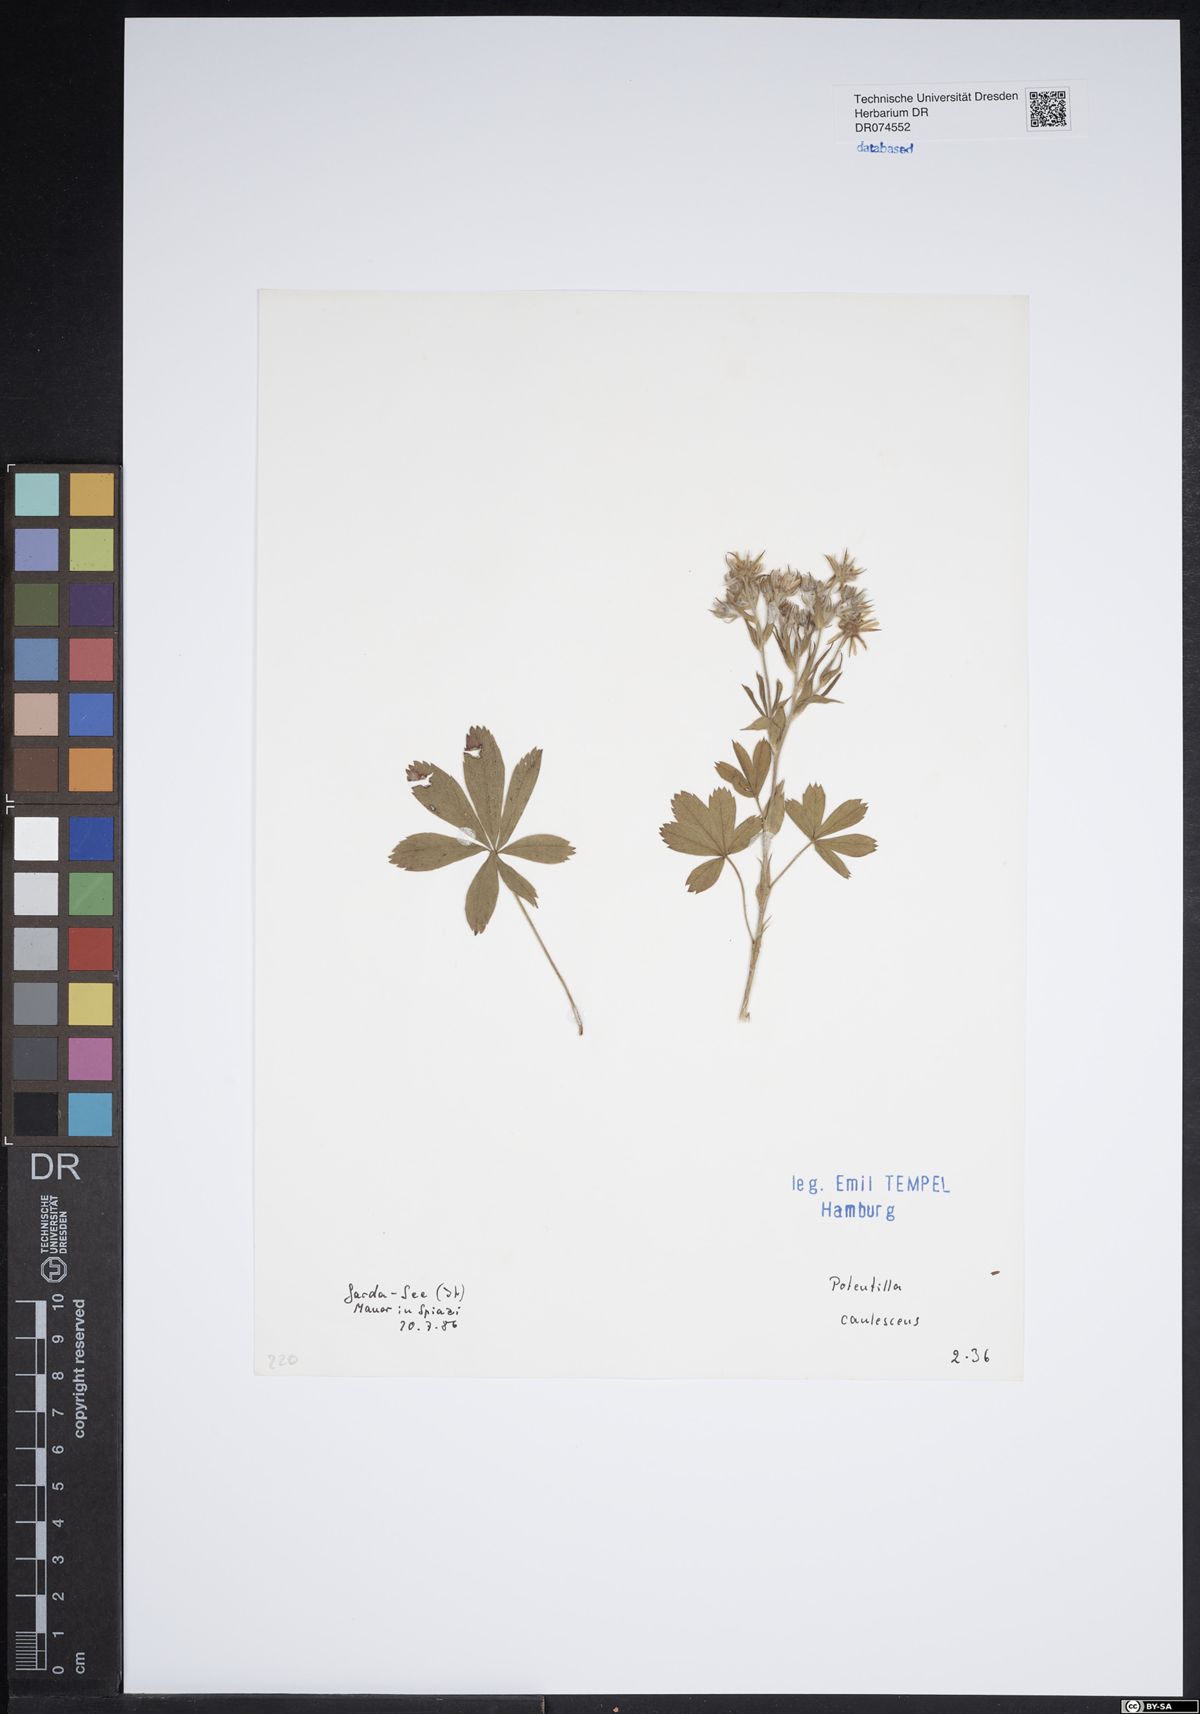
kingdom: Plantae
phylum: Tracheophyta
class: Magnoliopsida
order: Rosales
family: Rosaceae
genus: Potentilla
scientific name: Potentilla caulescens
